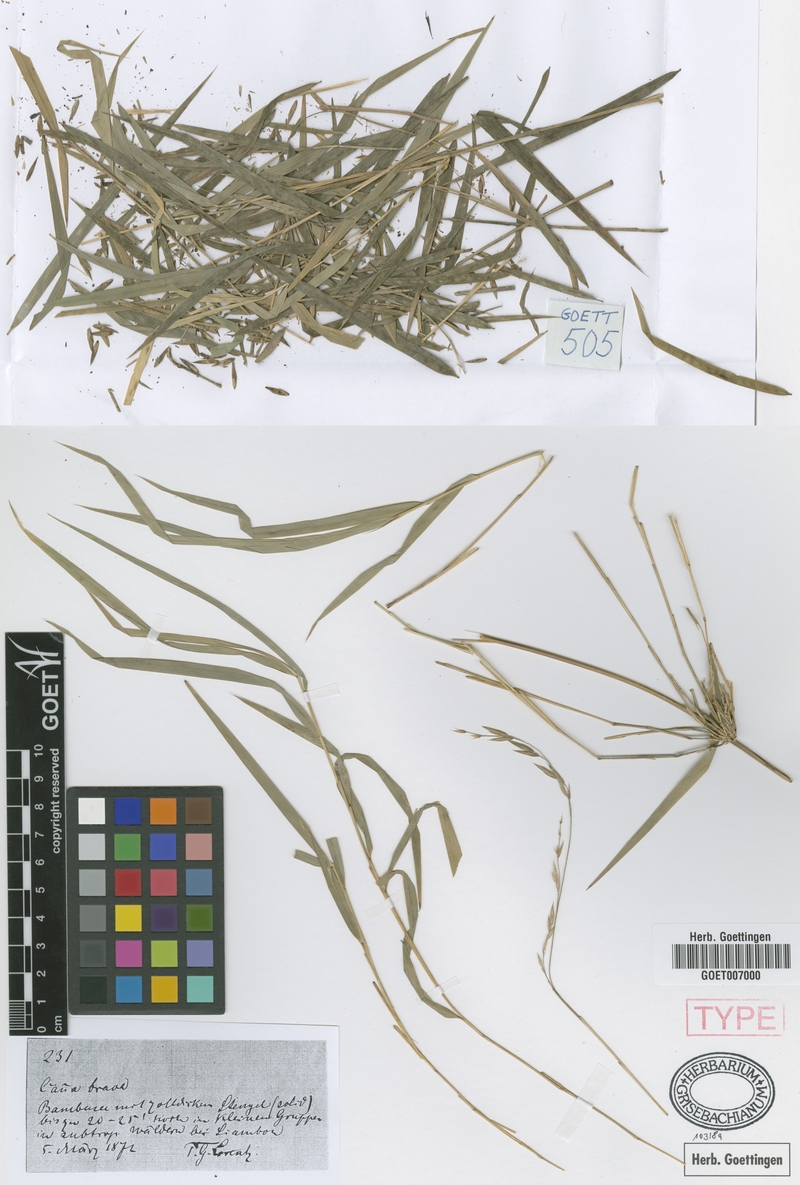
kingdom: Plantae
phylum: Tracheophyta
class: Liliopsida
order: Poales
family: Poaceae
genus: Chusquea
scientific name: Chusquea lorentziana
